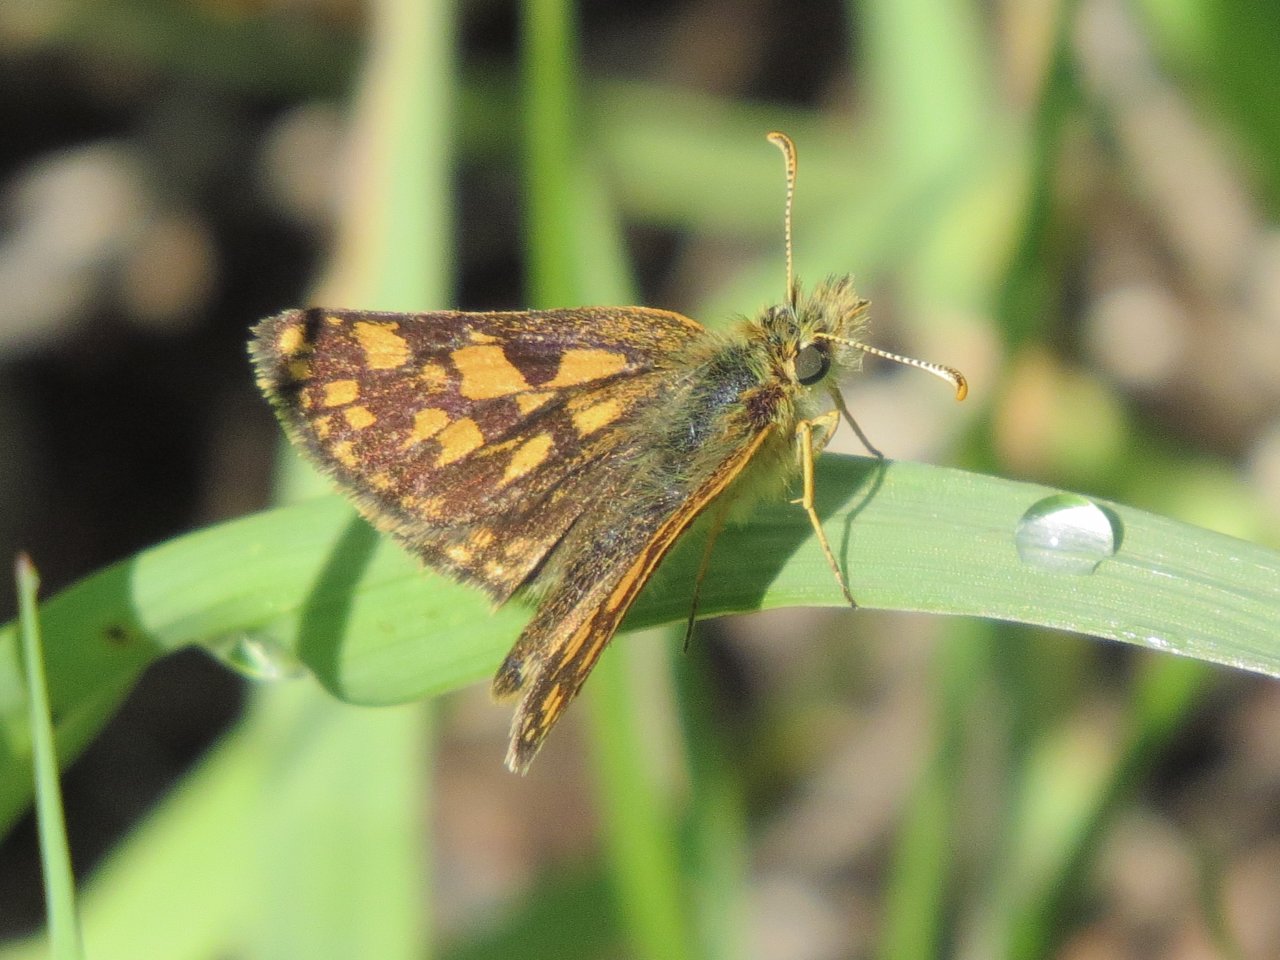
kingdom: Animalia
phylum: Arthropoda
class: Insecta
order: Lepidoptera
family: Hesperiidae
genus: Carterocephalus
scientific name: Carterocephalus palaemon
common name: Chequered Skipper
